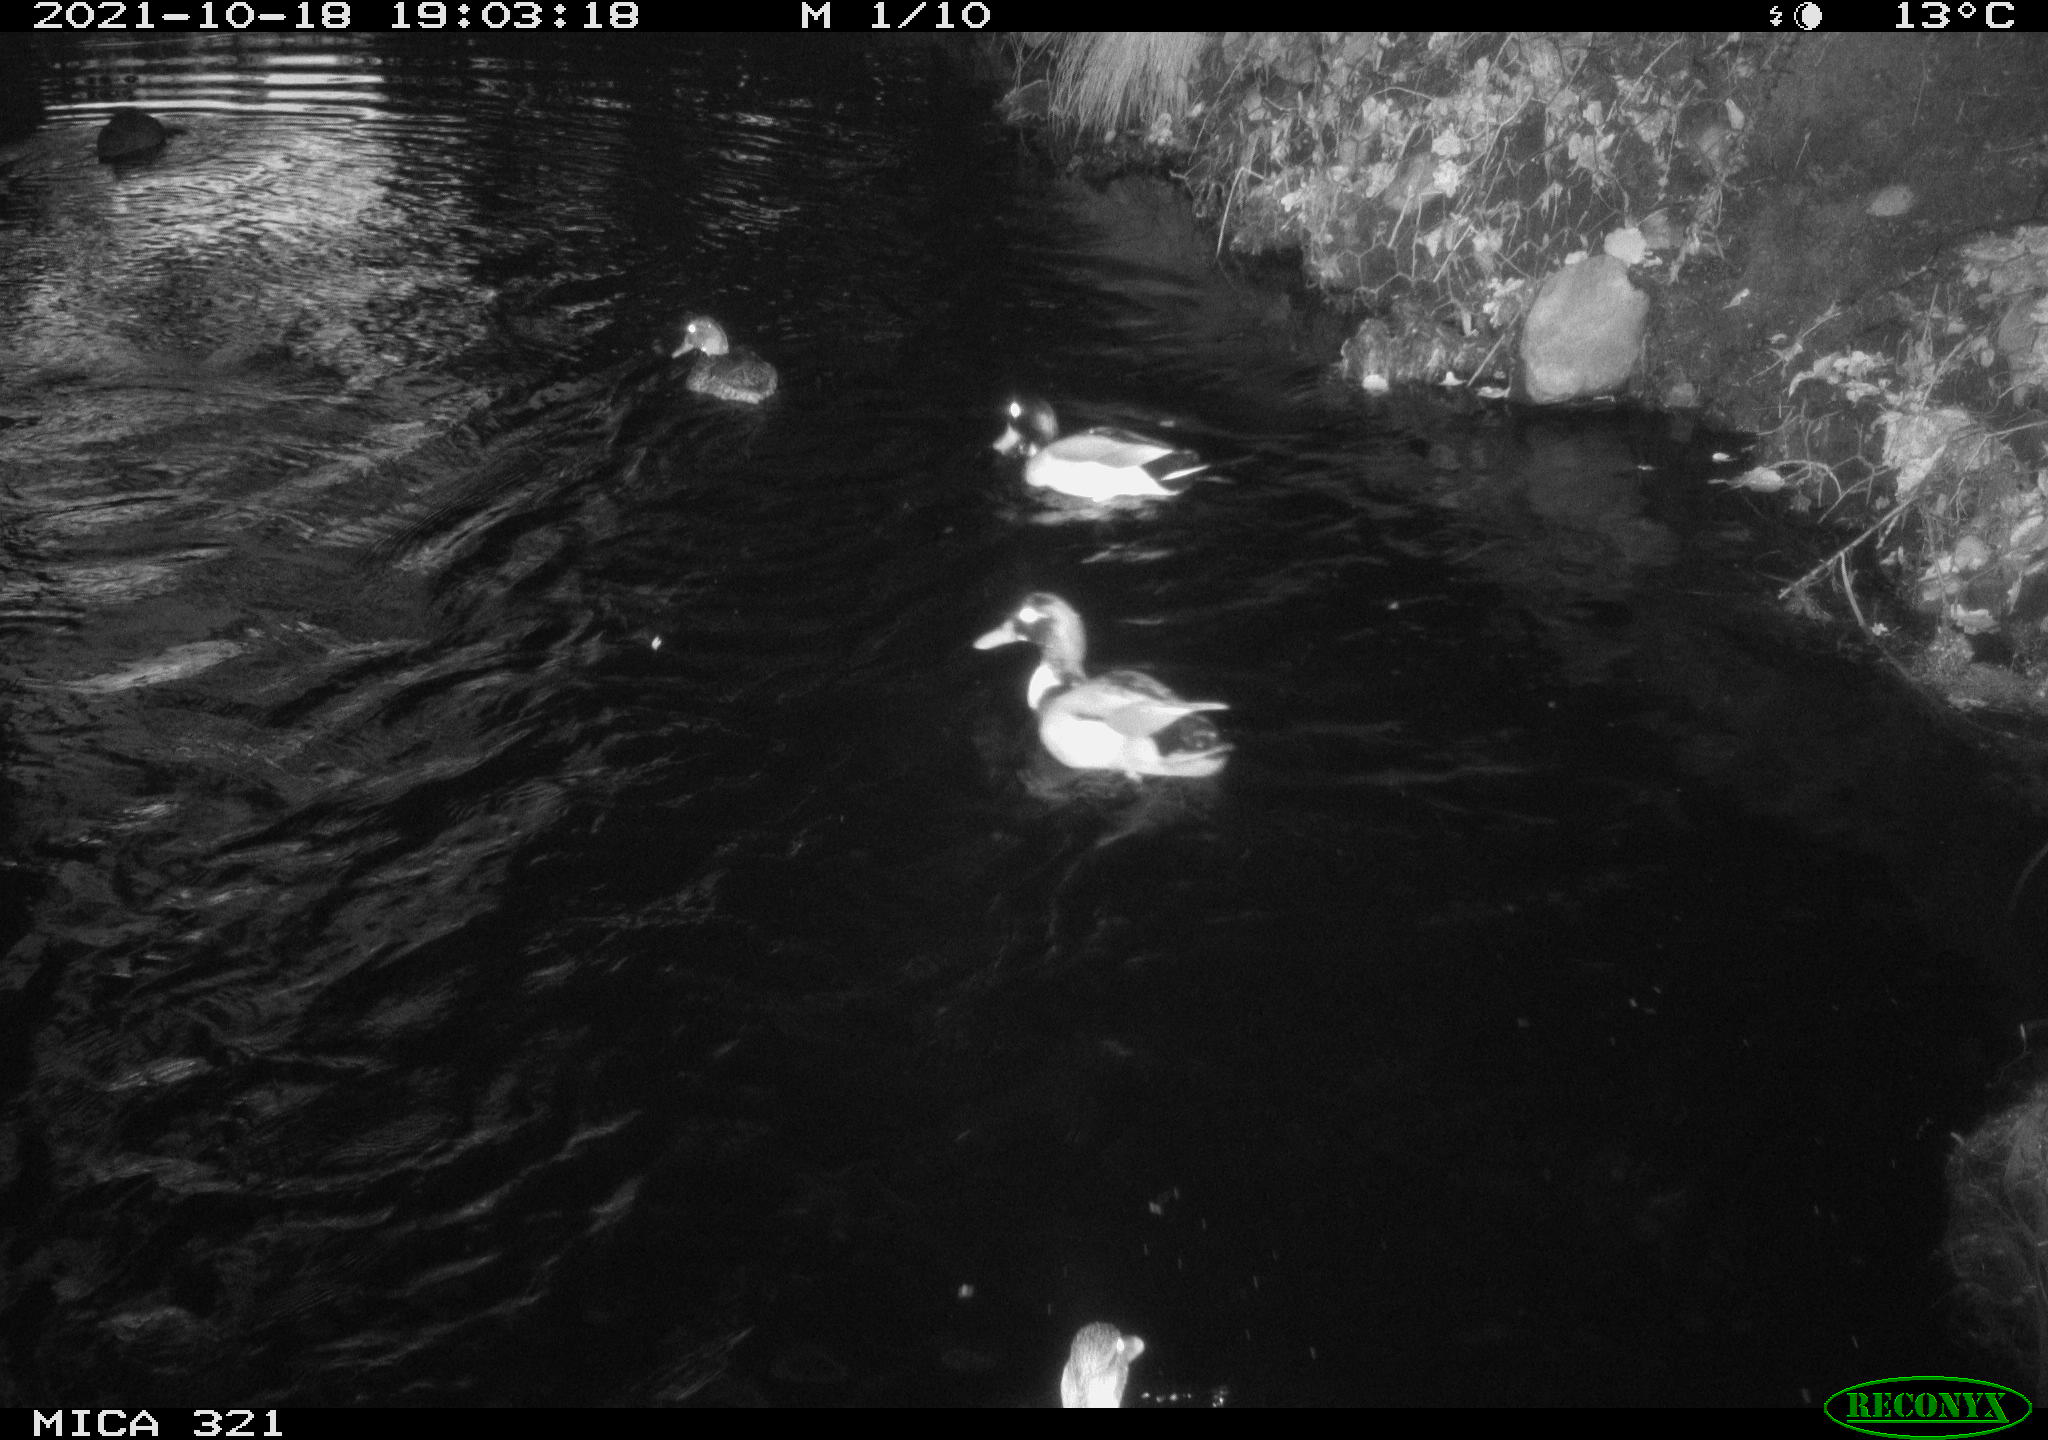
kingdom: Animalia
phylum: Chordata
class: Aves
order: Anseriformes
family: Anatidae
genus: Anas
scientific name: Anas platyrhynchos
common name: Mallard
